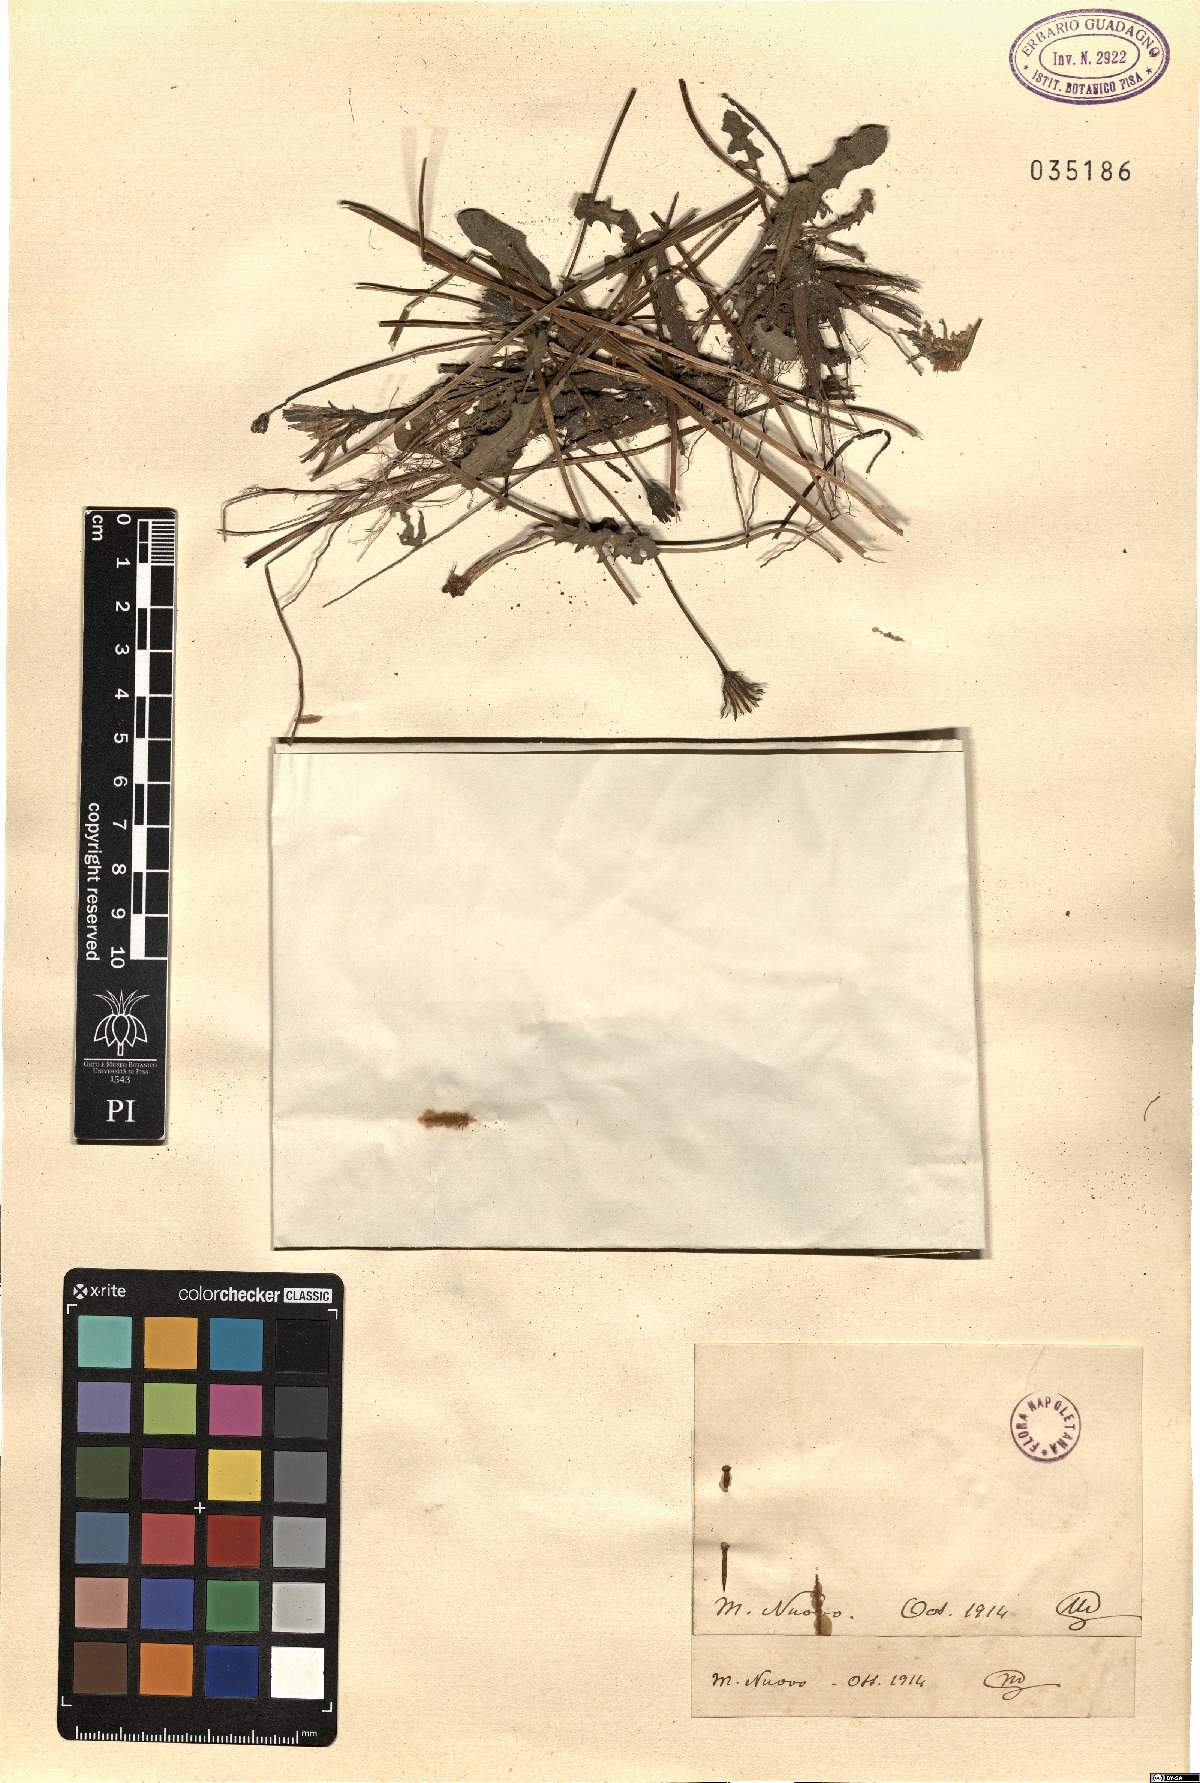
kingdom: Plantae
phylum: Tracheophyta
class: Magnoliopsida
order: Asterales
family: Asteraceae
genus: Thrincia
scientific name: Thrincia
